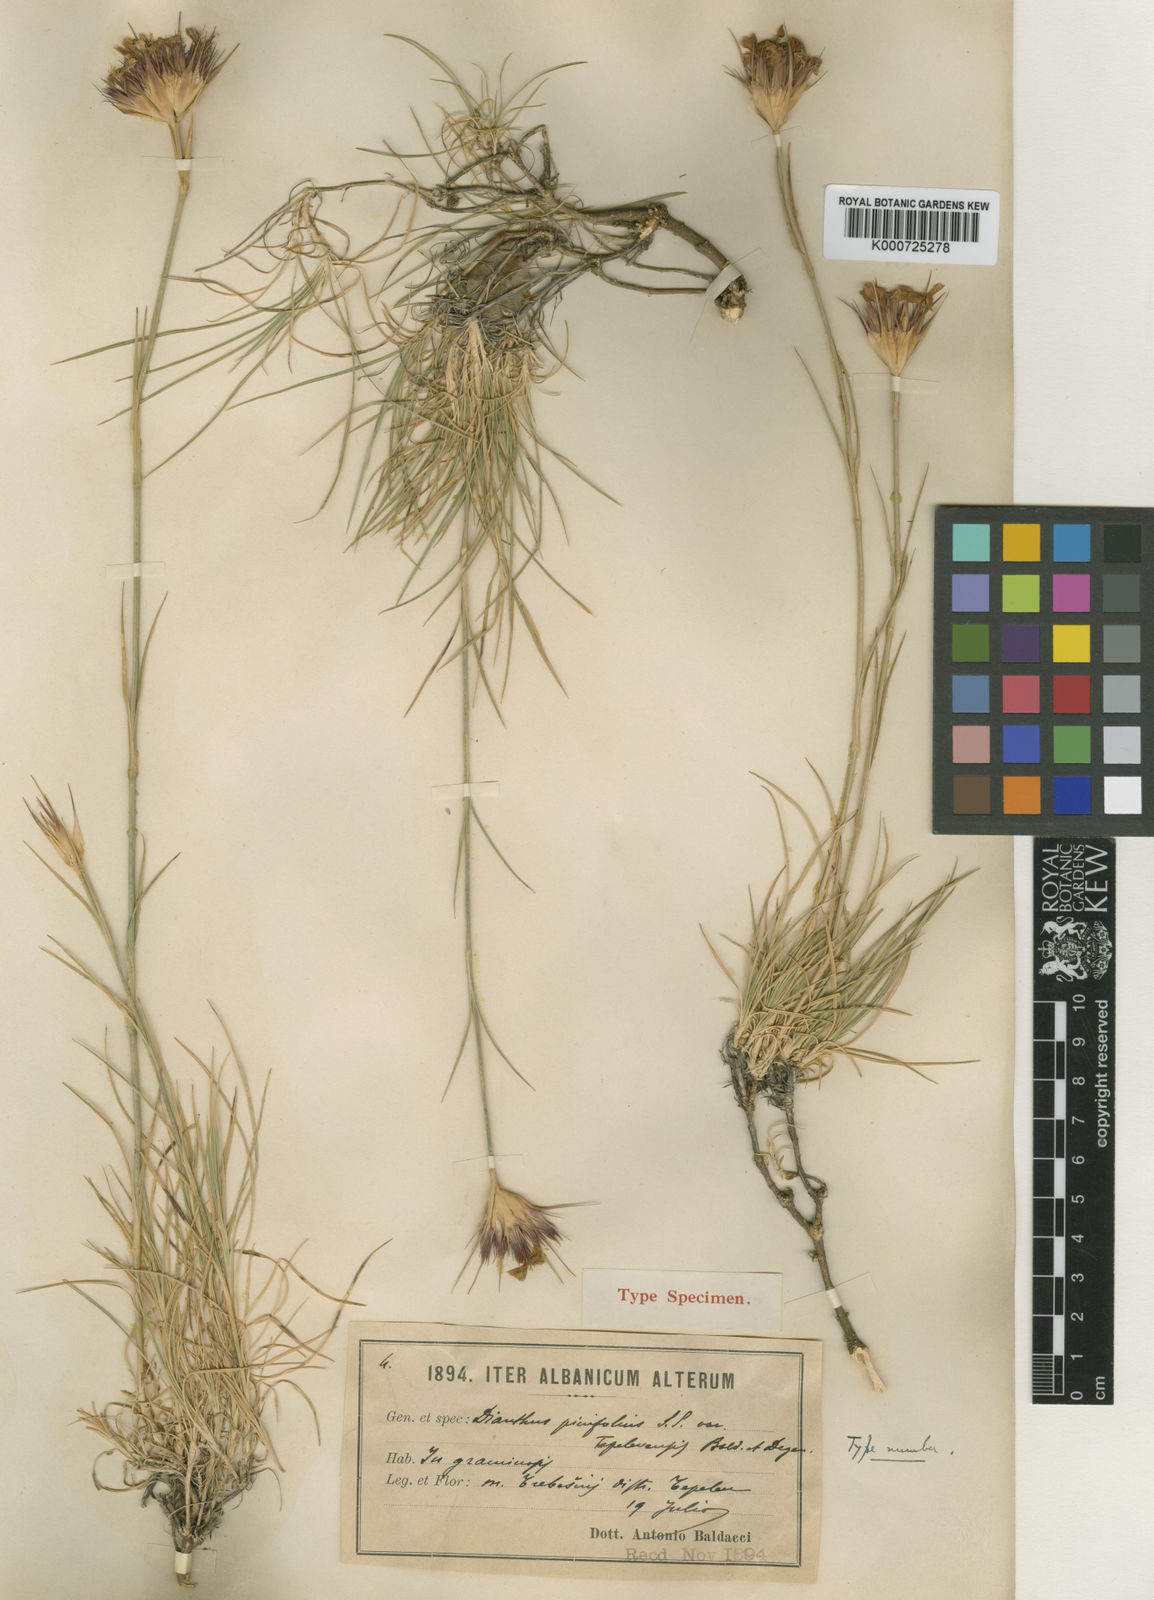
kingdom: Plantae
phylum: Tracheophyta
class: Magnoliopsida
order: Caryophyllales
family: Caryophyllaceae
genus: Dianthus
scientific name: Dianthus pinifolius
